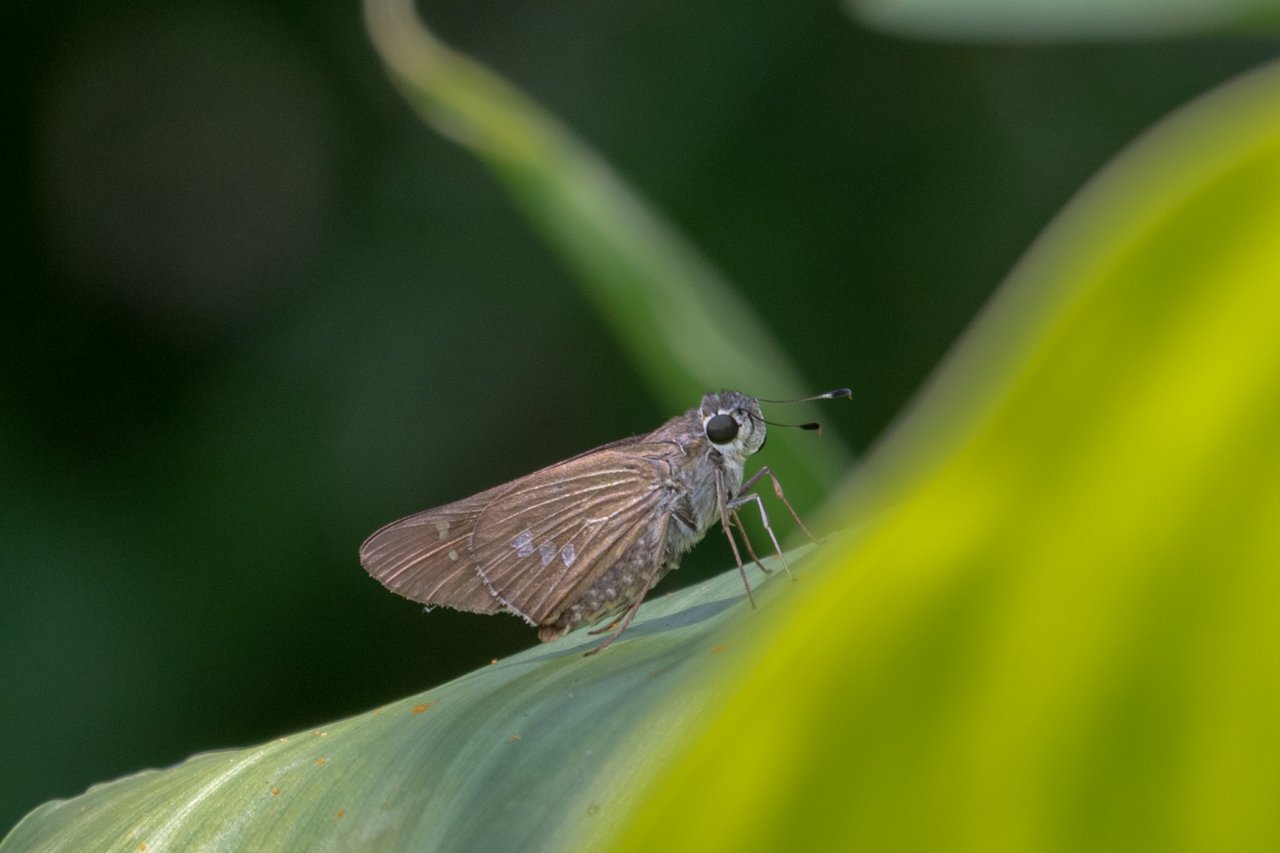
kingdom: Animalia
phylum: Arthropoda
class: Insecta
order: Lepidoptera
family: Hesperiidae
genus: Calpodes
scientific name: Calpodes ethlius
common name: Brazilian Skipper
